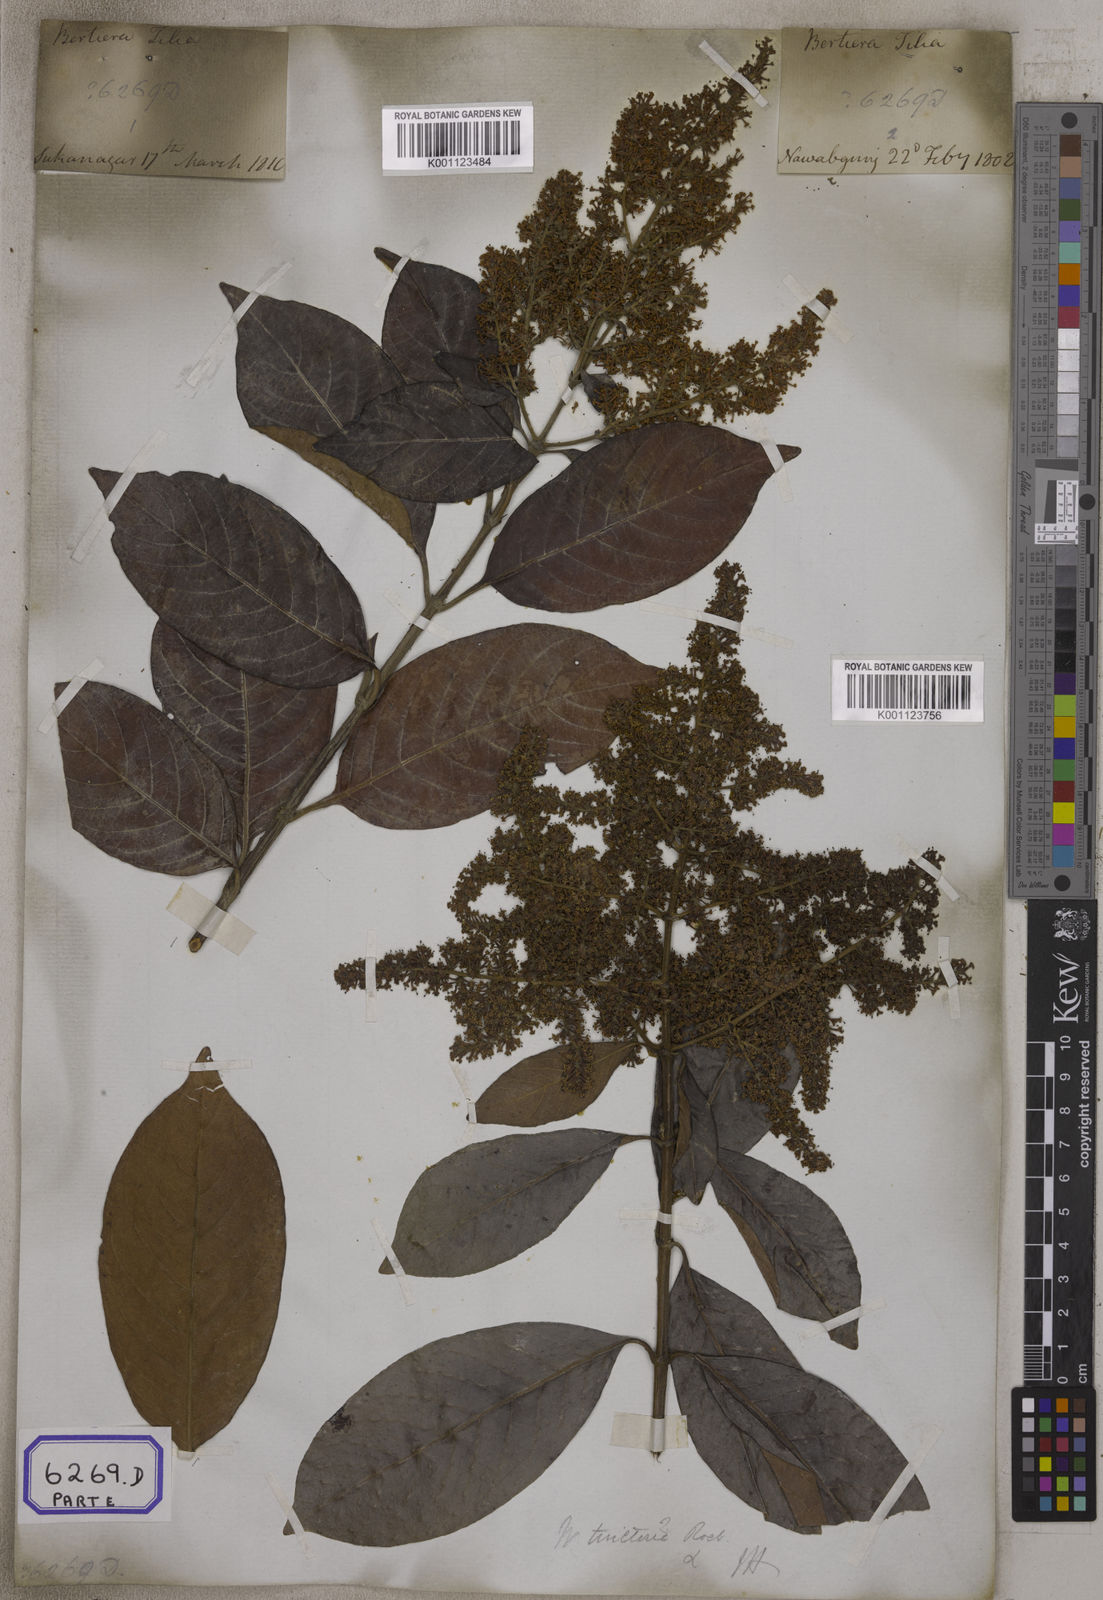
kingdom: Plantae
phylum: Tracheophyta
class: Magnoliopsida
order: Gentianales
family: Rubiaceae
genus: Wendlandia
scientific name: Wendlandia tinctoria
